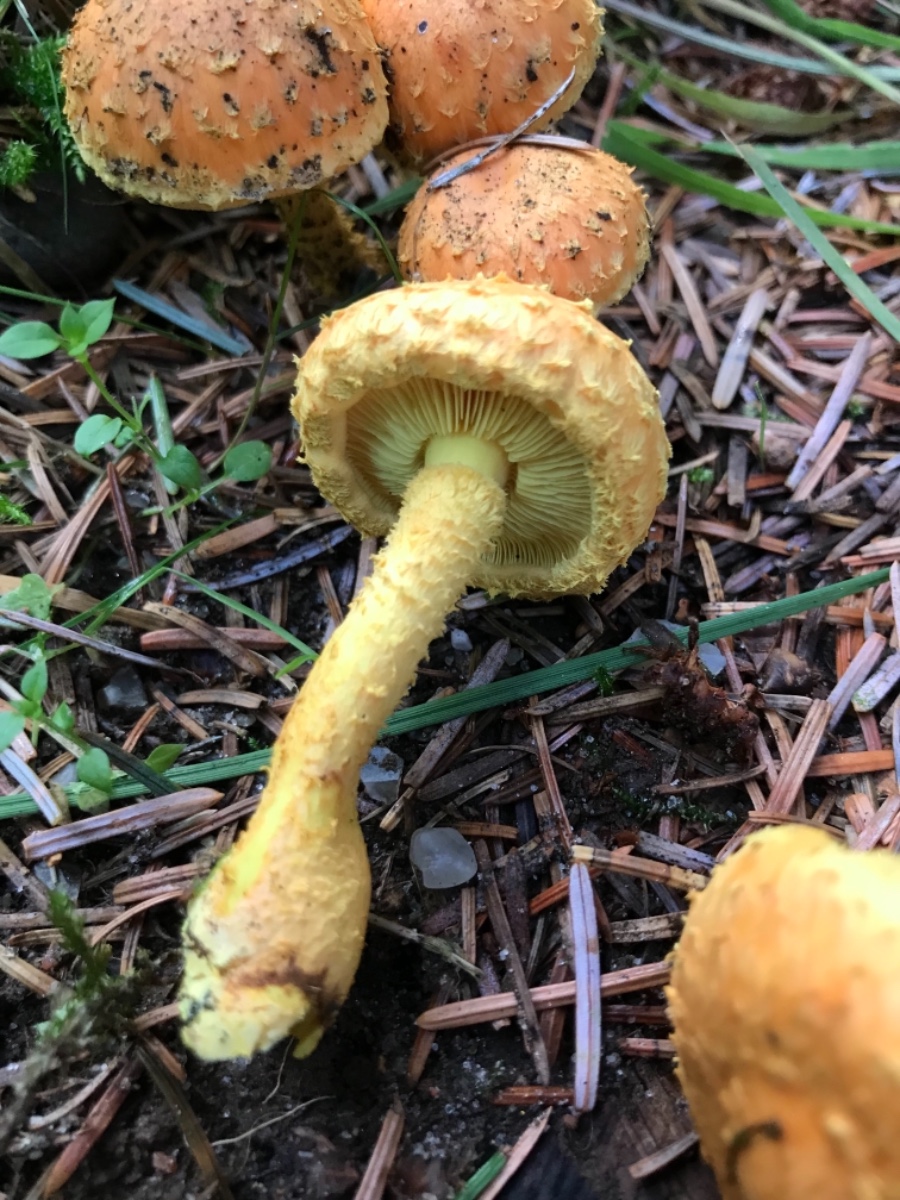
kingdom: Fungi
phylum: Basidiomycota
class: Agaricomycetes
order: Agaricales
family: Strophariaceae
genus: Pholiota
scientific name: Pholiota flammans
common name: flamme-skælhat
